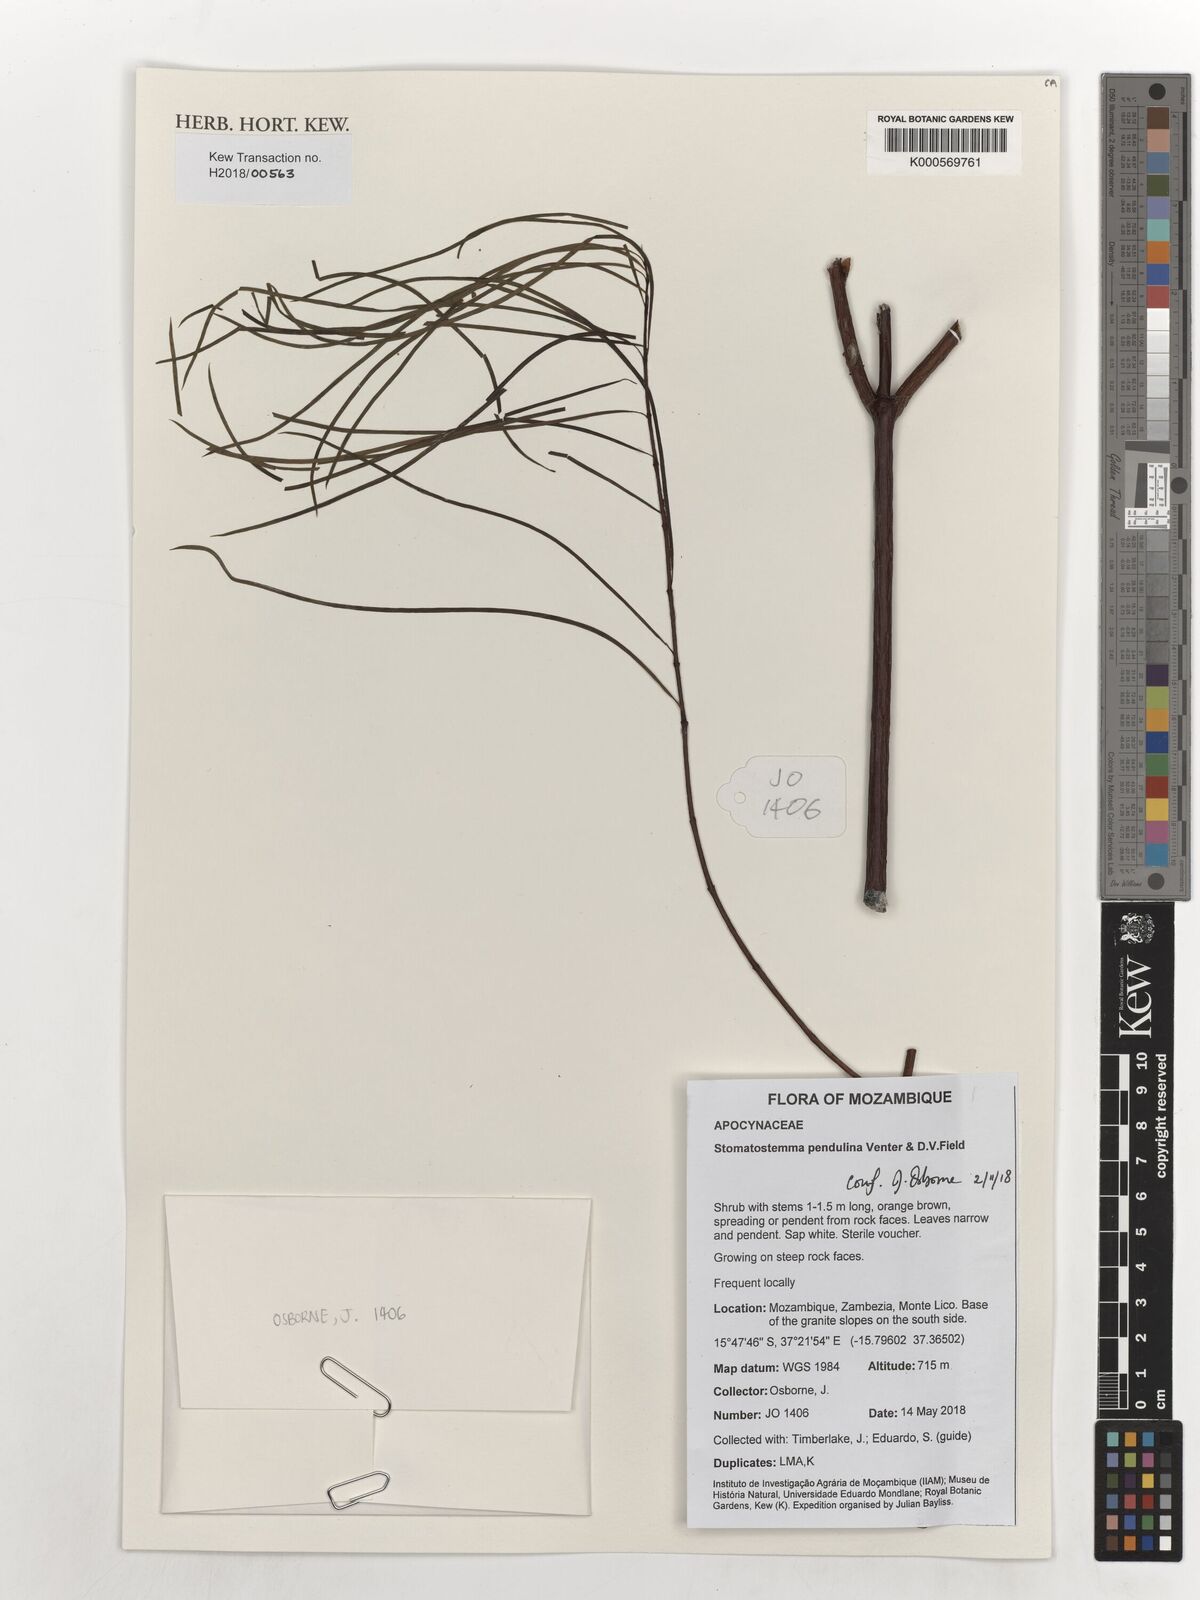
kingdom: Plantae
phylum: Tracheophyta
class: Magnoliopsida
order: Gentianales
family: Apocynaceae
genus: Stomatostemma
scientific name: Stomatostemma pendulina
